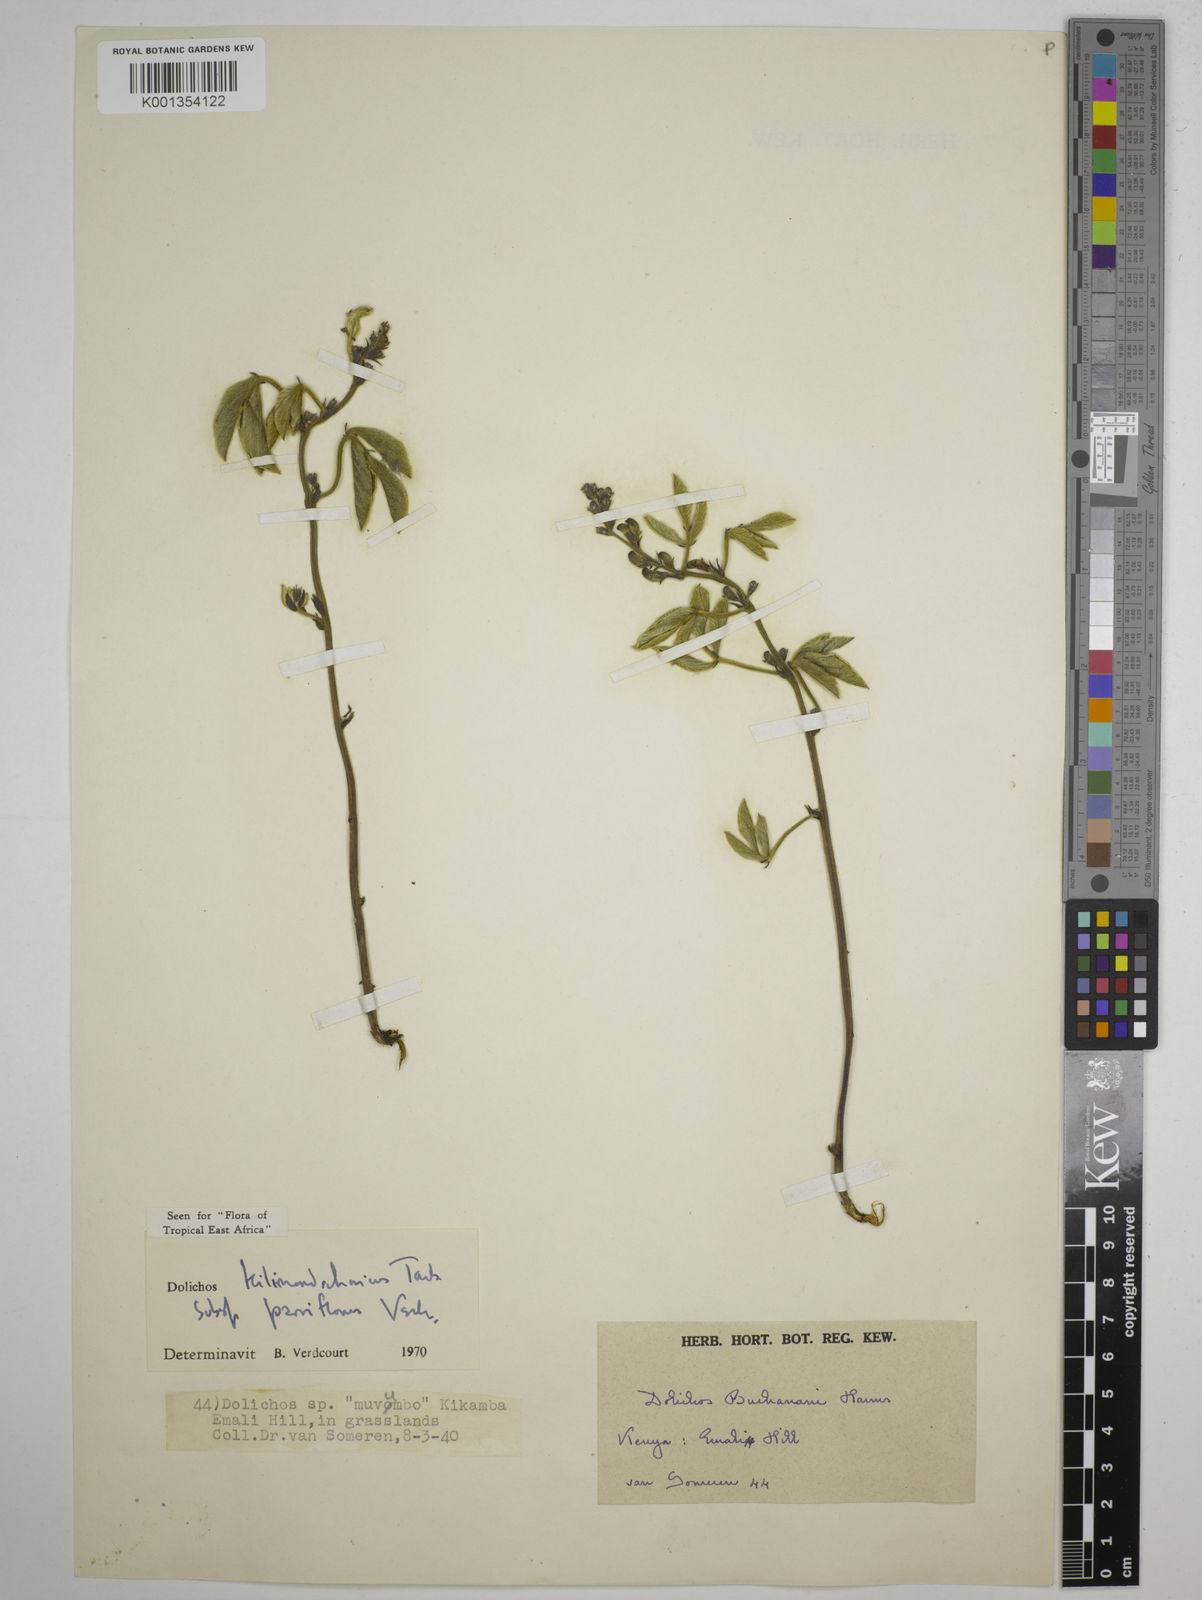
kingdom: Plantae
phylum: Tracheophyta
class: Magnoliopsida
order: Fabales
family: Fabaceae
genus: Dolichos
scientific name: Dolichos
